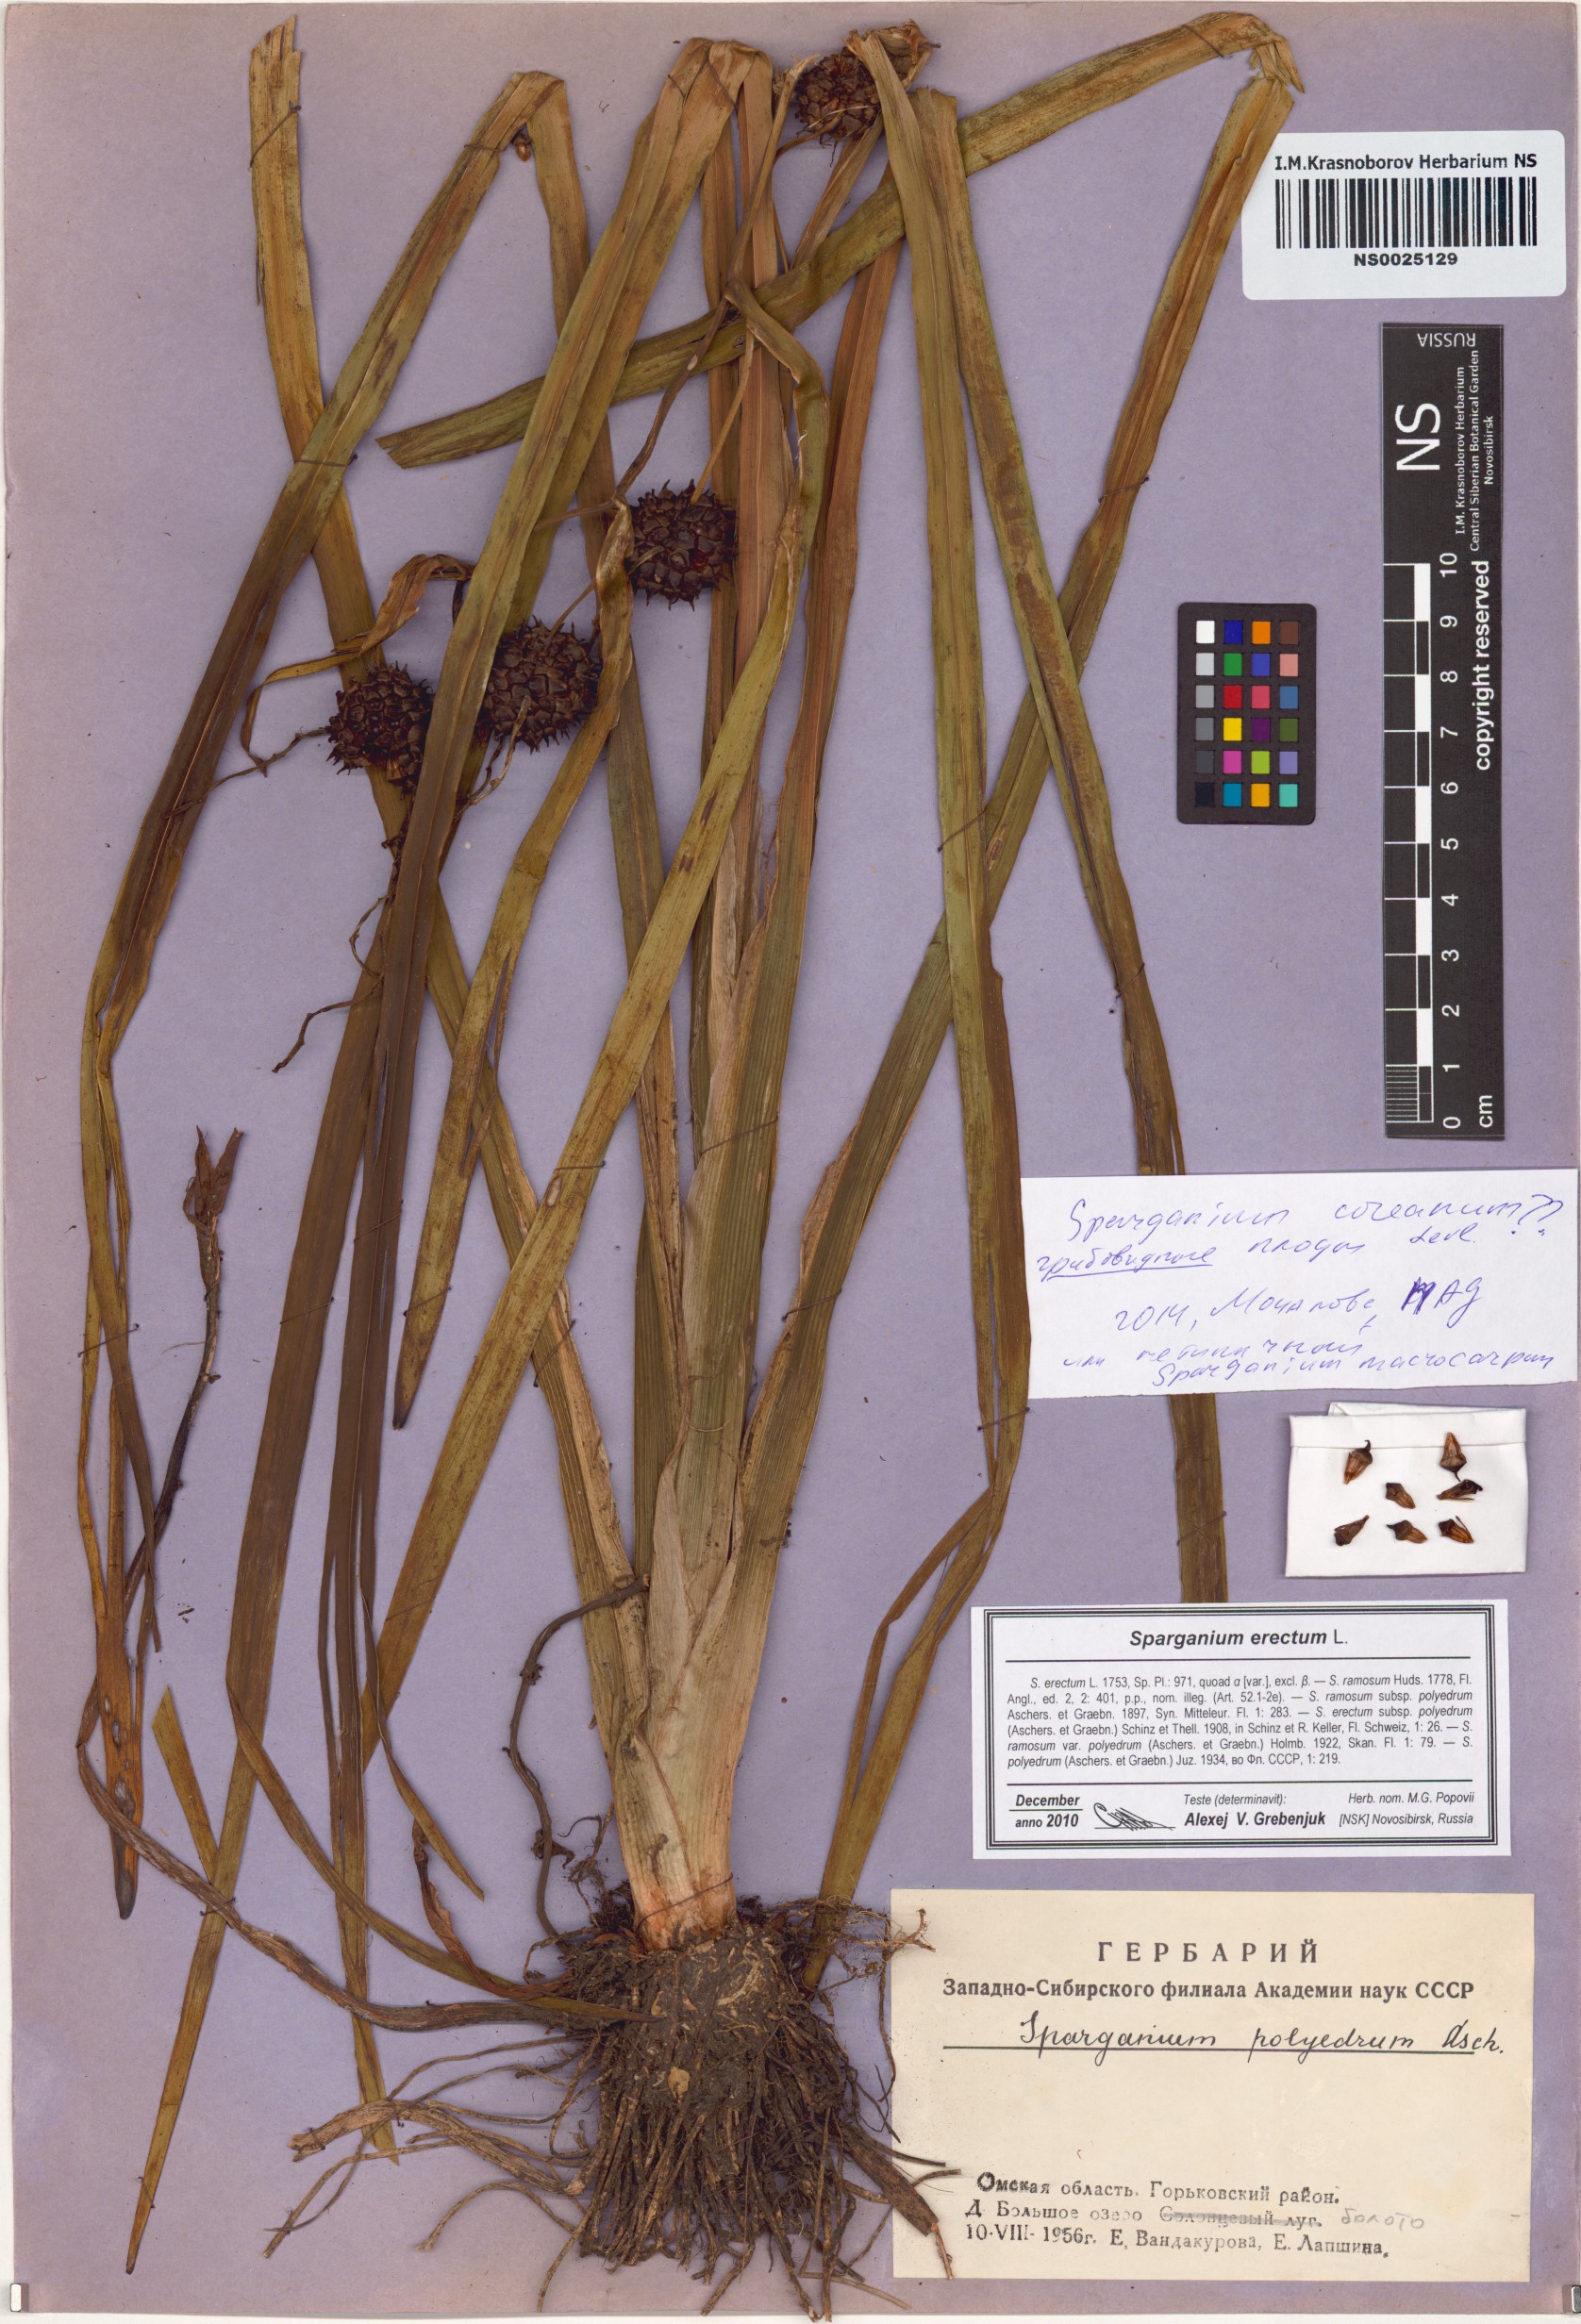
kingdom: Plantae
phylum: Tracheophyta
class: Liliopsida
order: Poales
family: Typhaceae
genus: Sparganium
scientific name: Sparganium erectum
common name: Branched bur-reed
